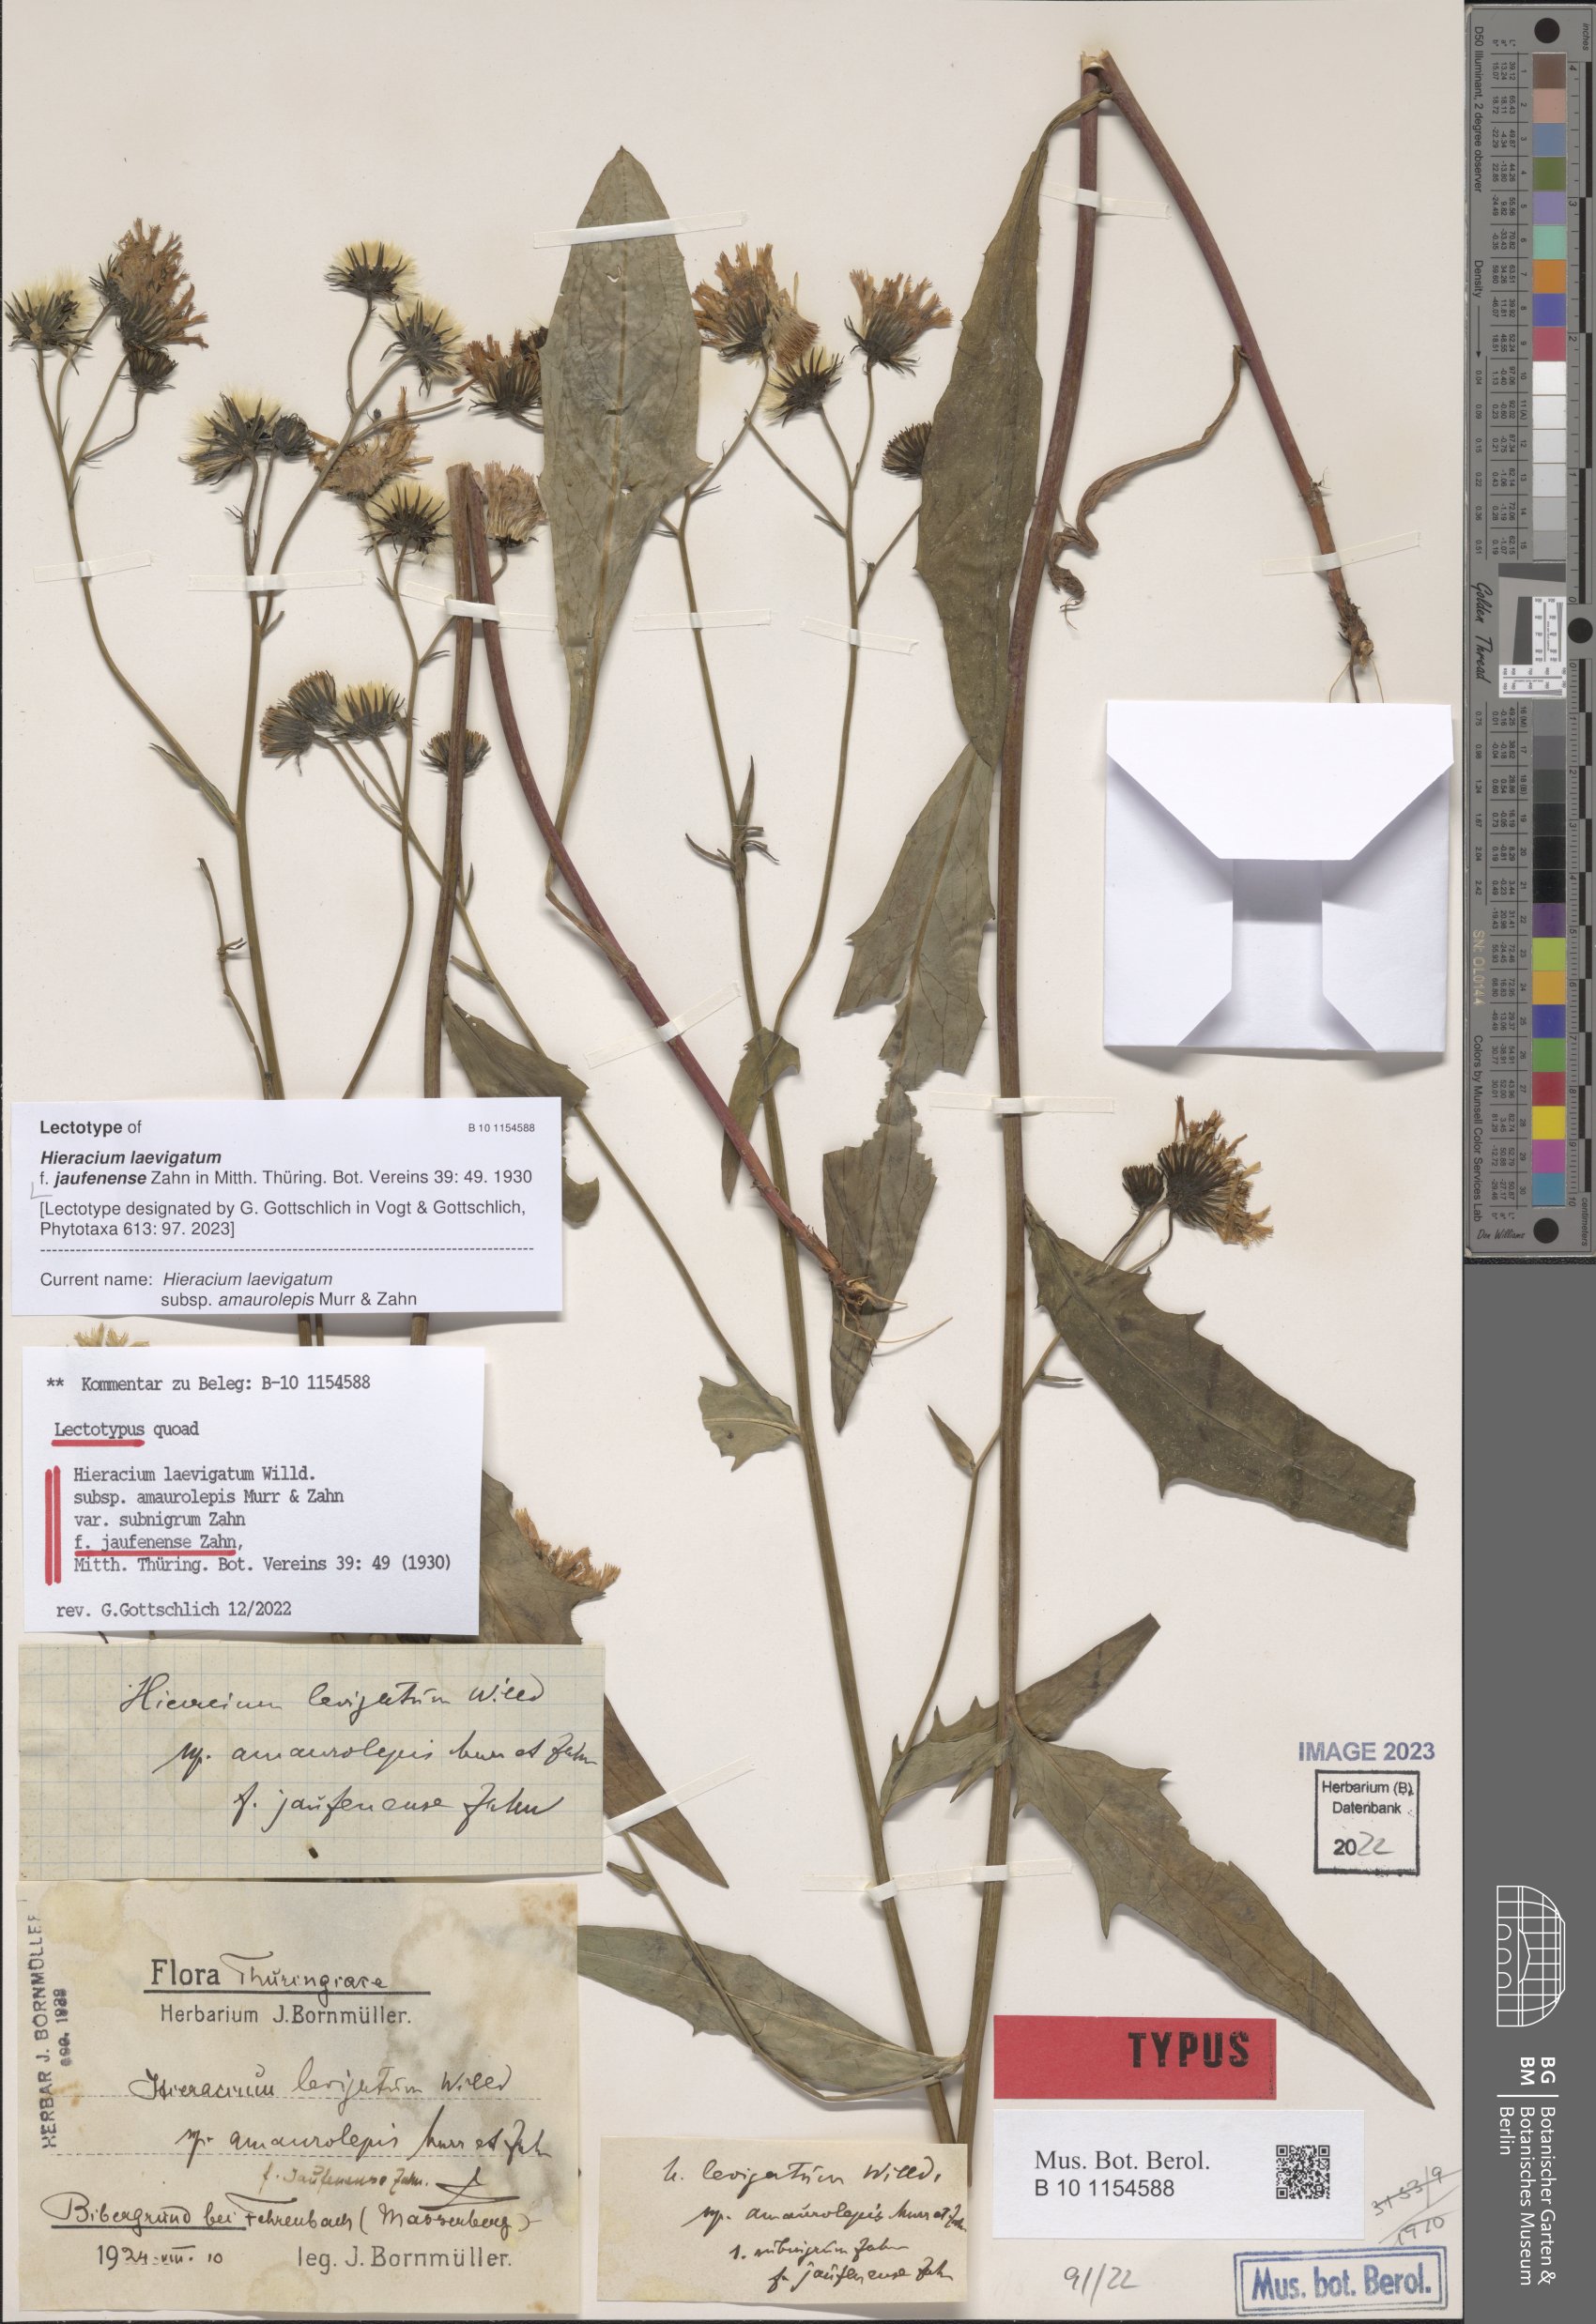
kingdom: Plantae
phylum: Tracheophyta
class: Magnoliopsida
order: Asterales
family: Asteraceae
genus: Hieracium
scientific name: Hieracium laevigatum
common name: Smooth hawkweed
